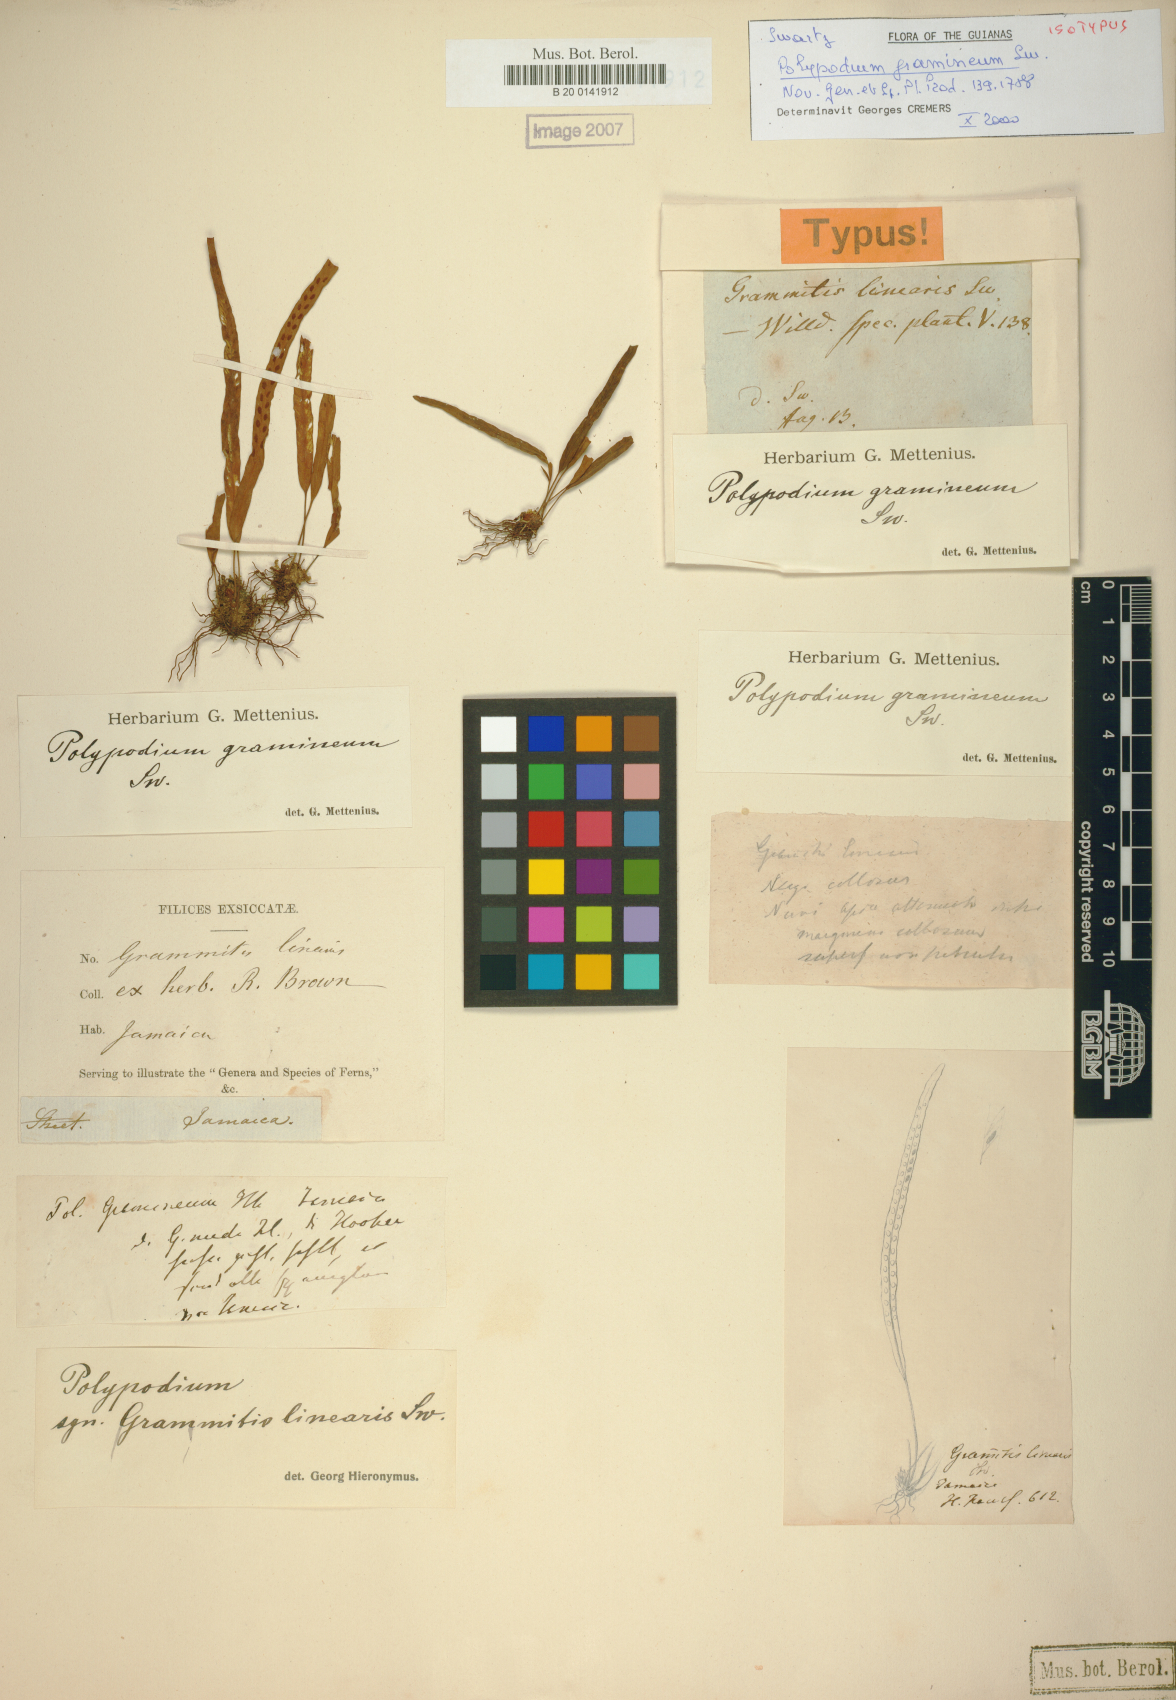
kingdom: Plantae
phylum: Tracheophyta
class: Polypodiopsida
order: Polypodiales
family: Polypodiaceae
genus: Lomaphlebia
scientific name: Lomaphlebia linearis
